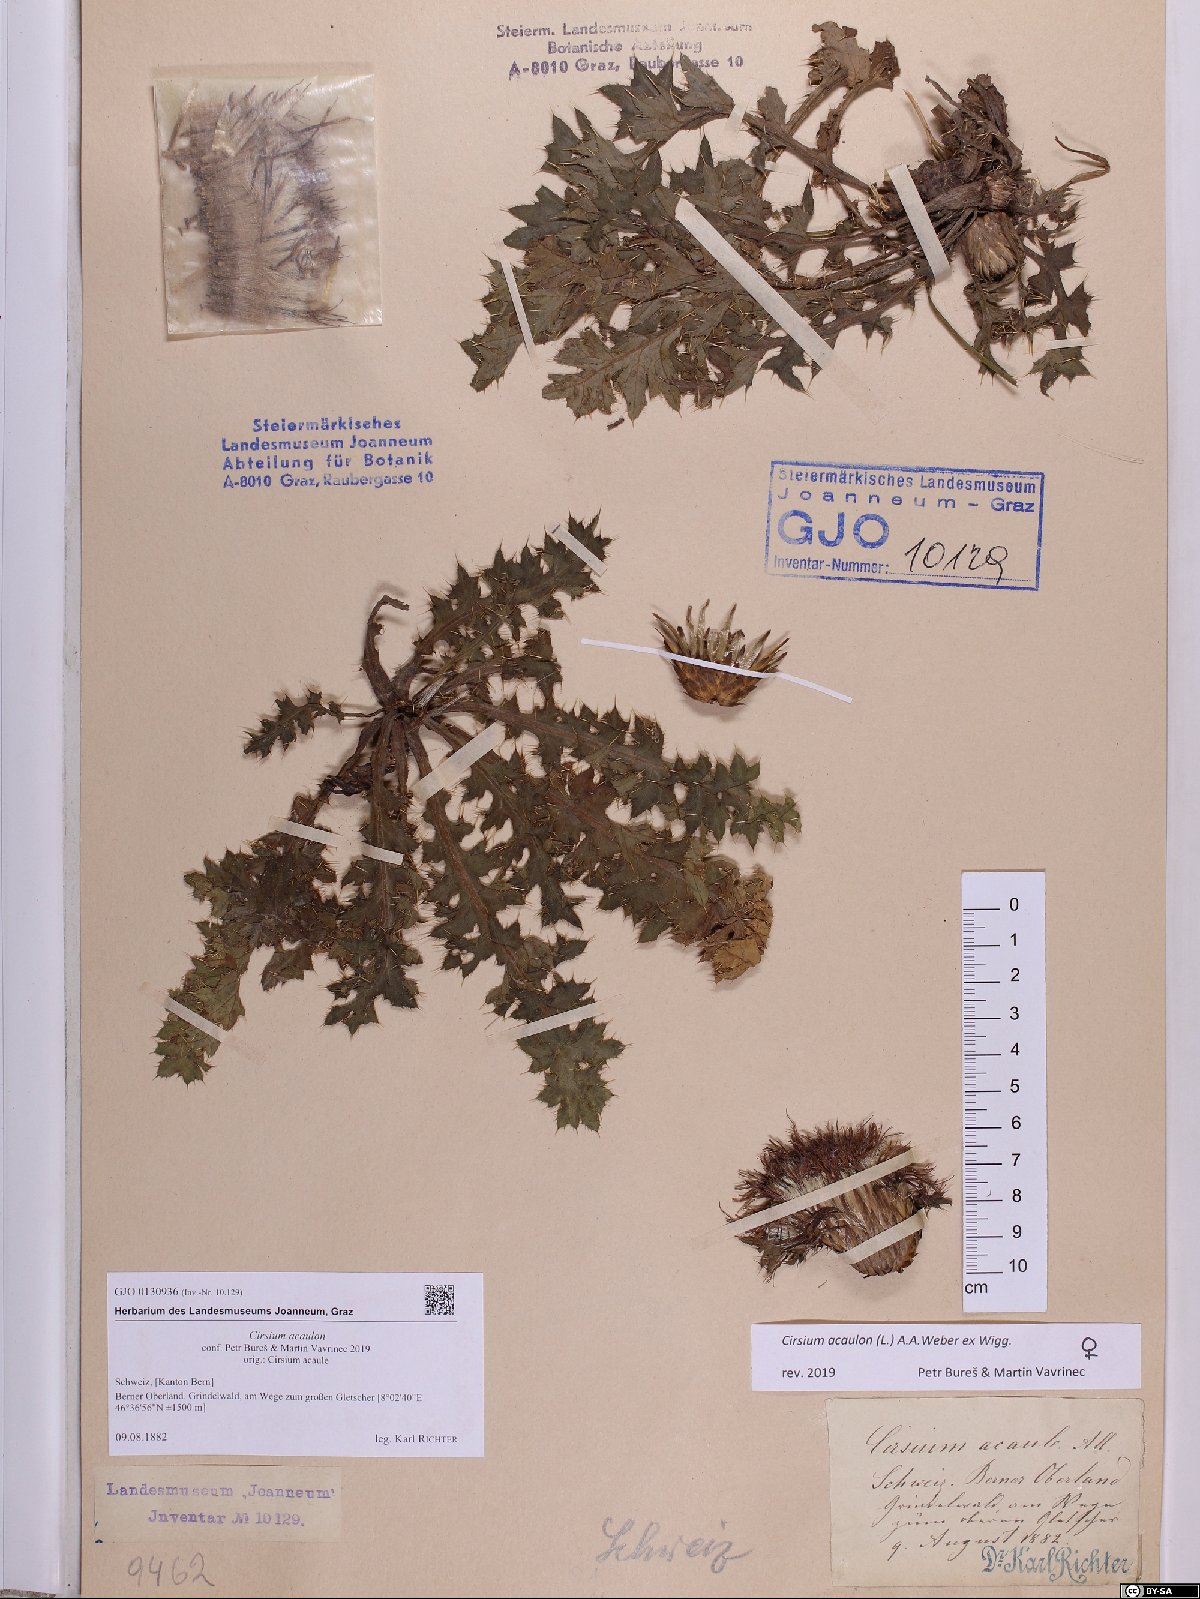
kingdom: Plantae
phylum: Tracheophyta
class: Magnoliopsida
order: Asterales
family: Asteraceae
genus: Cirsium
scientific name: Cirsium acaulon
